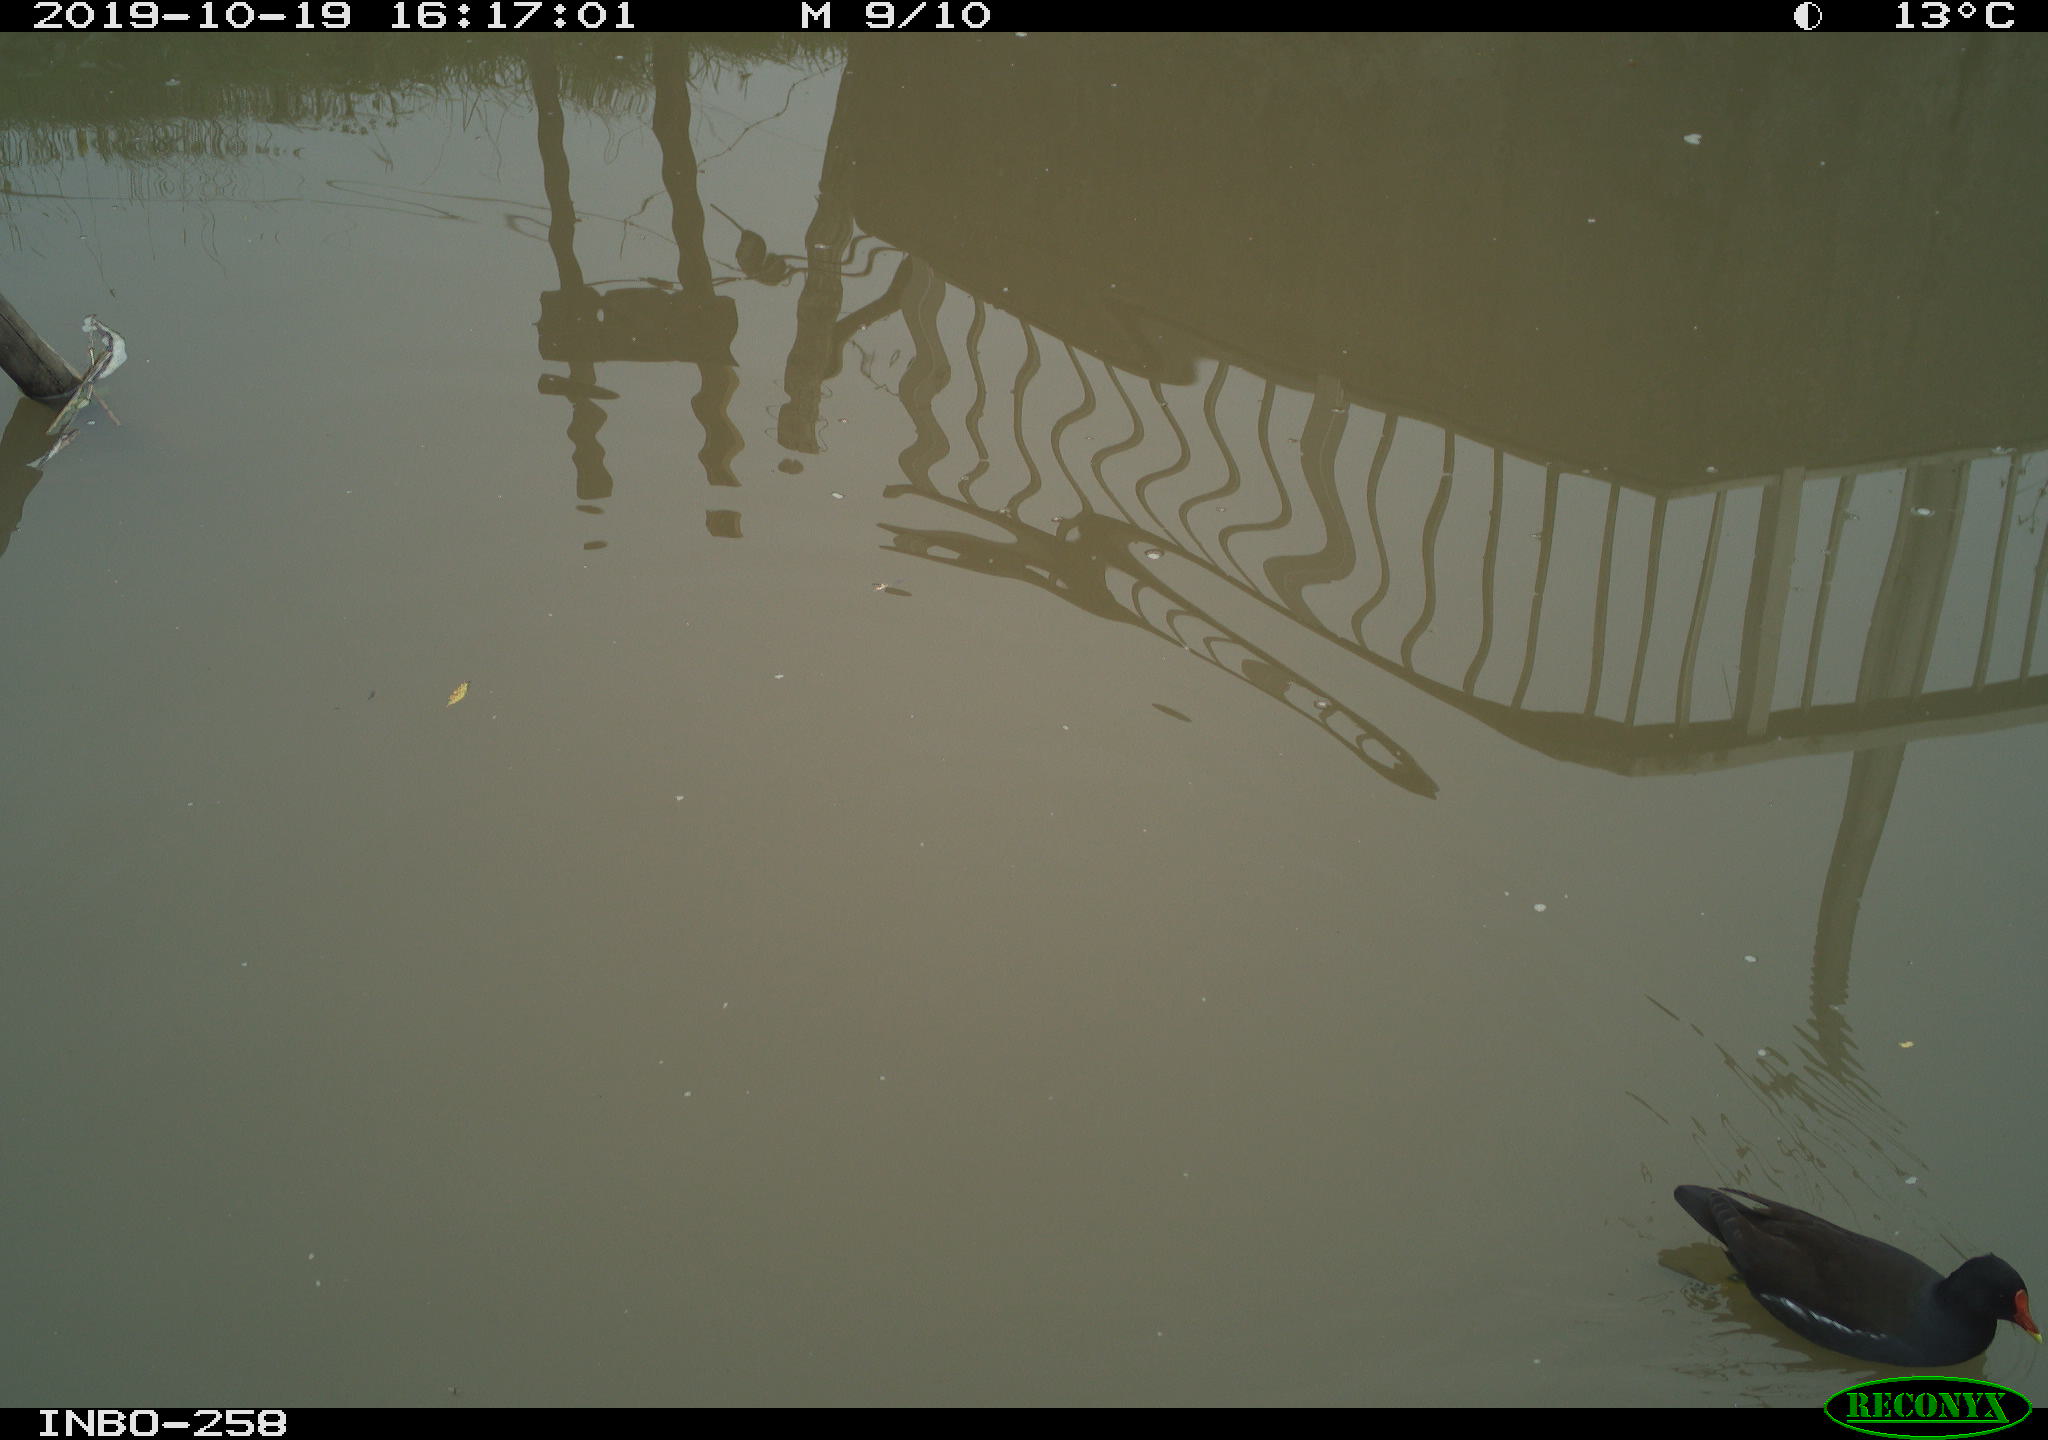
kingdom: Animalia
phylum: Chordata
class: Aves
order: Gruiformes
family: Rallidae
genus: Gallinula
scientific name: Gallinula chloropus
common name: Common moorhen
